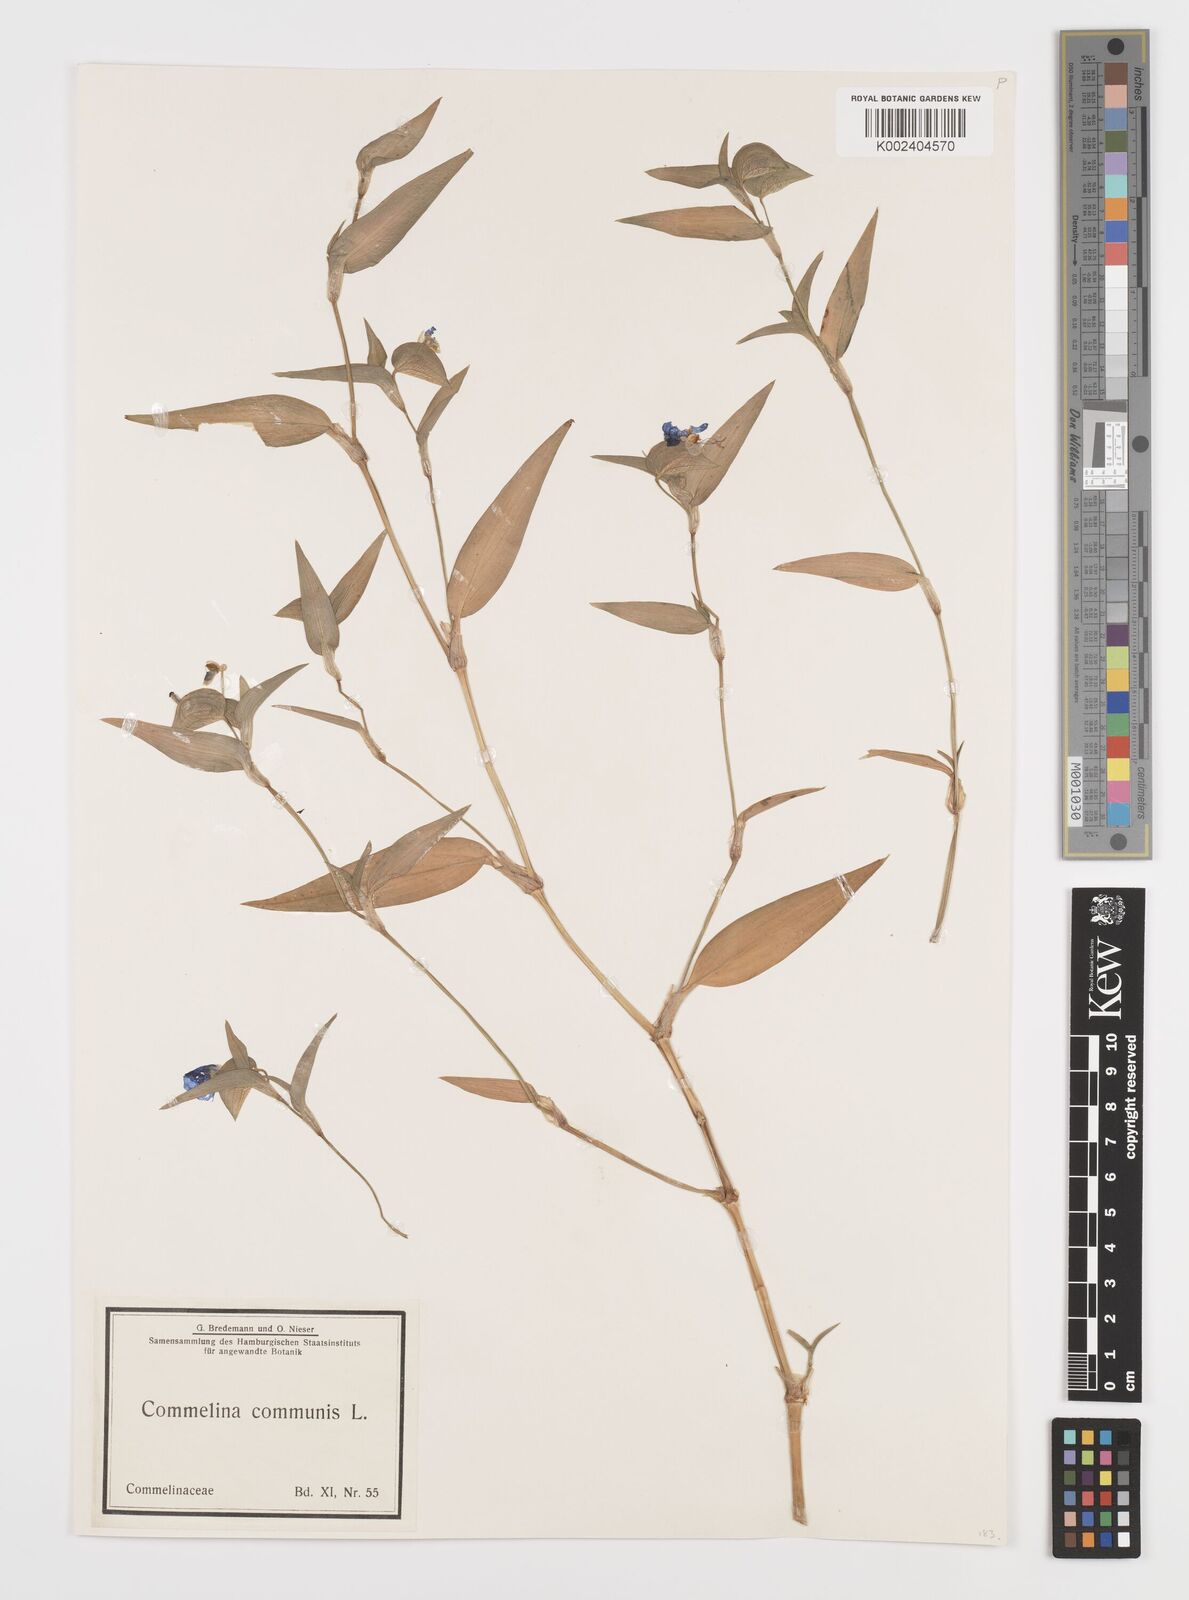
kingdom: Plantae
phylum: Tracheophyta
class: Liliopsida
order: Commelinales
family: Commelinaceae
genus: Commelina
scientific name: Commelina communis
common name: Asiatic dayflower
